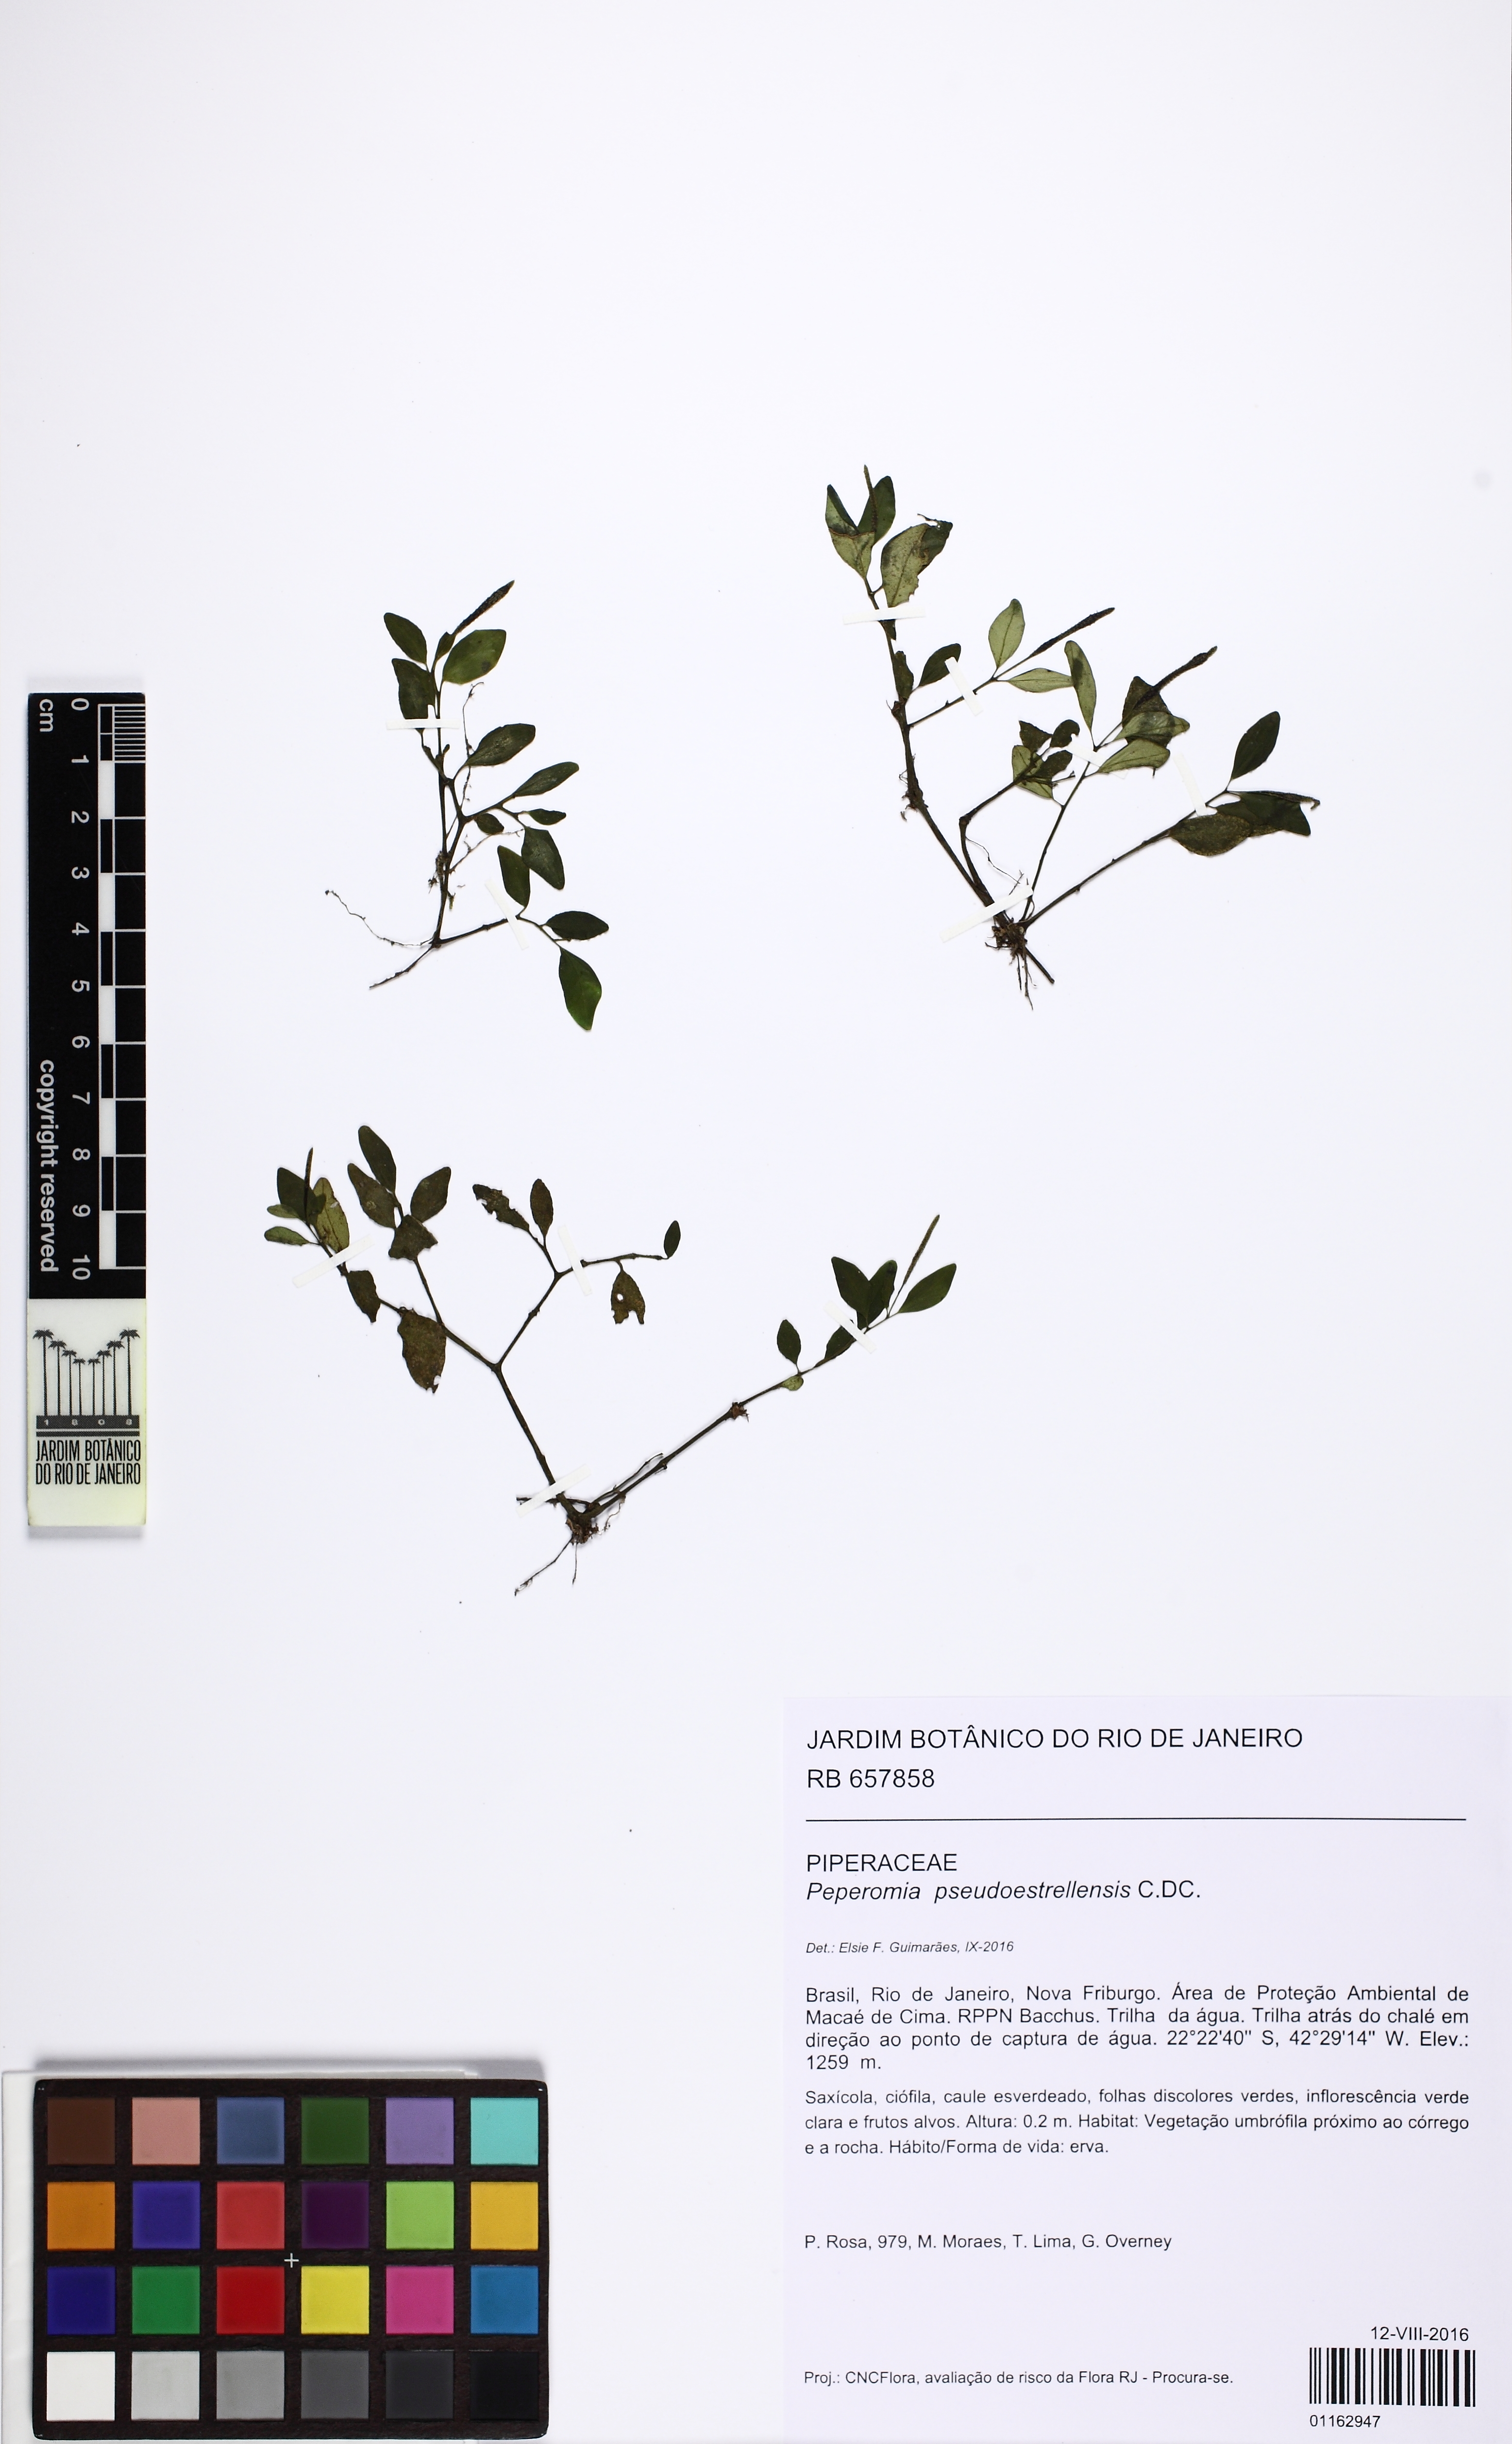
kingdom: Plantae
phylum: Tracheophyta
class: Magnoliopsida
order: Piperales
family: Piperaceae
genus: Peperomia
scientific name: Peperomia pseudoestrellensis
